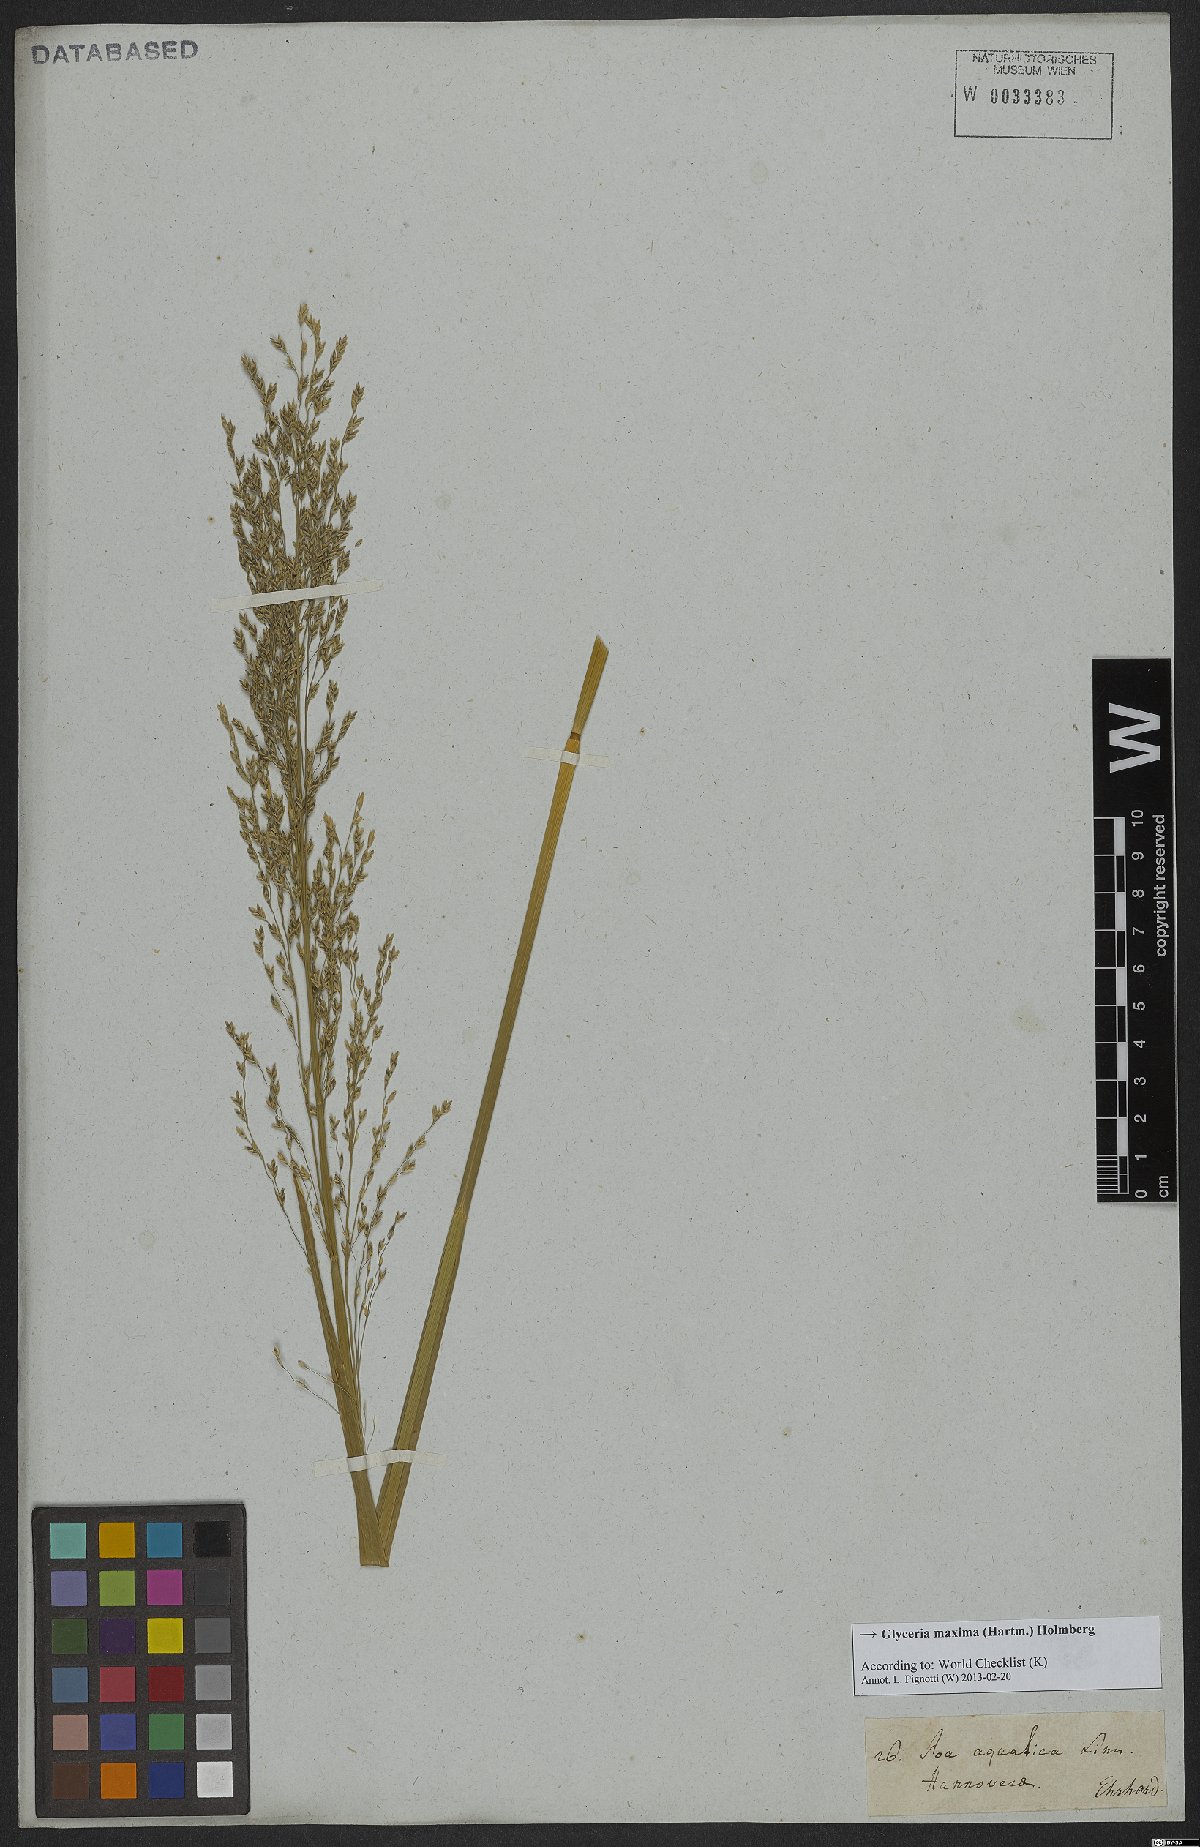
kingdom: Plantae
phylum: Tracheophyta
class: Liliopsida
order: Poales
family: Poaceae
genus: Glyceria
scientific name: Glyceria maxima
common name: Reed mannagrass
